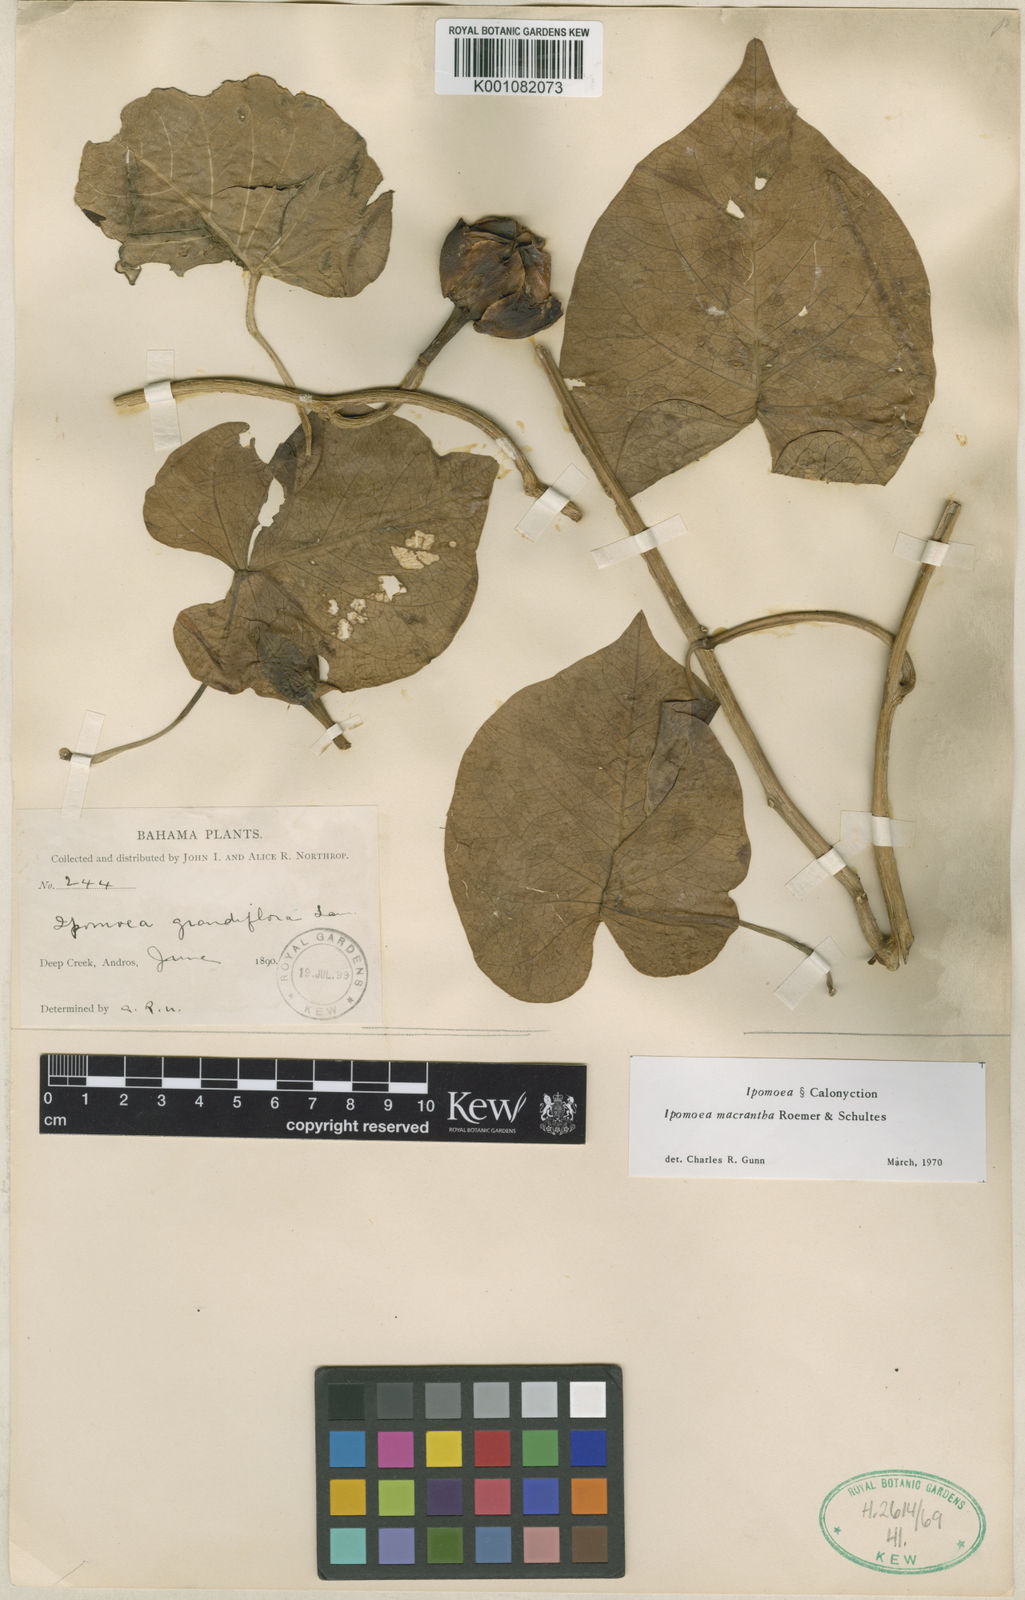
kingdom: Plantae
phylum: Tracheophyta
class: Magnoliopsida
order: Solanales
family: Convolvulaceae
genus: Ipomoea
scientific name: Ipomoea violacea
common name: Beach moonflower
